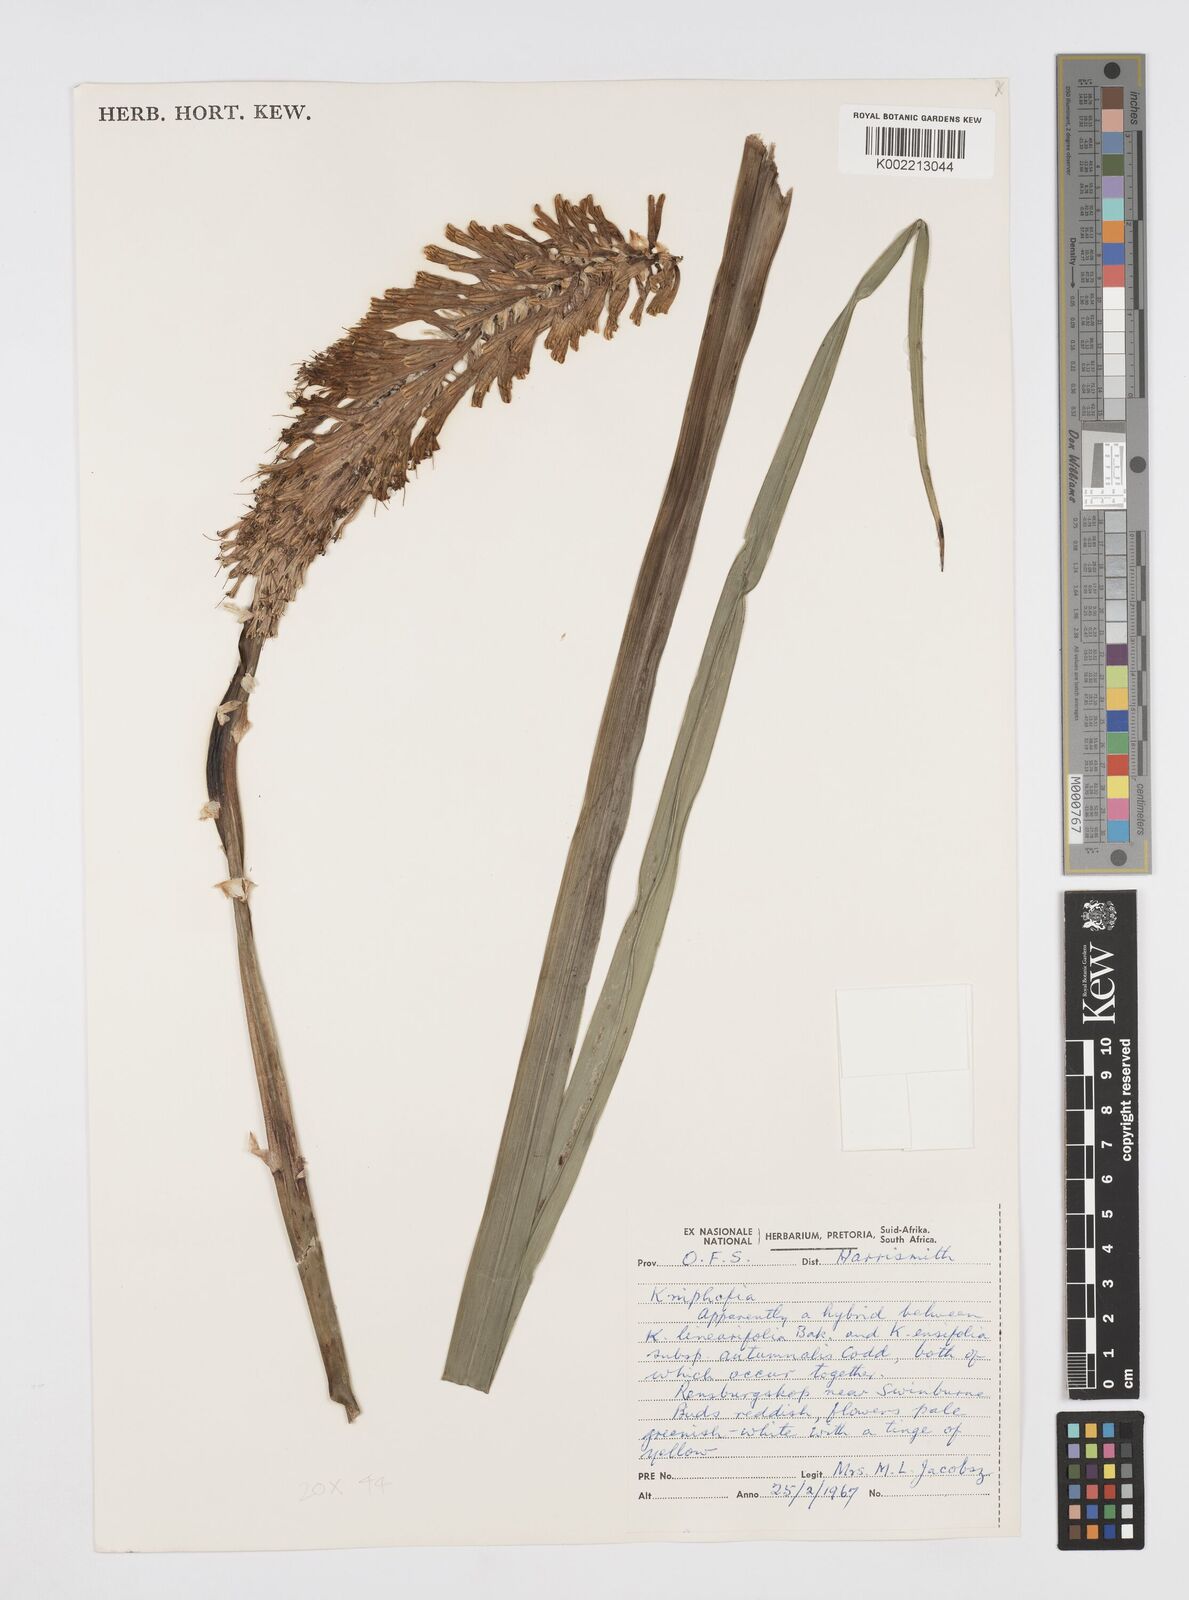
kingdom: Plantae
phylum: Tracheophyta
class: Liliopsida
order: Asparagales
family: Asphodelaceae
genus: Kniphofia
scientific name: Kniphofia linearifolia
